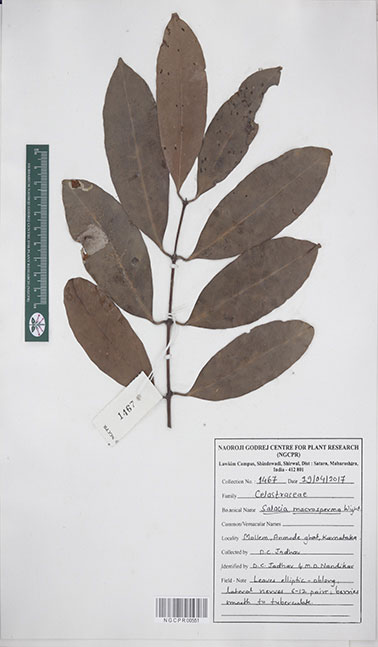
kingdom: Plantae
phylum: Tracheophyta
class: Magnoliopsida
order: Celastrales
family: Celastraceae
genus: Salacia
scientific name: Salacia macrosperma
